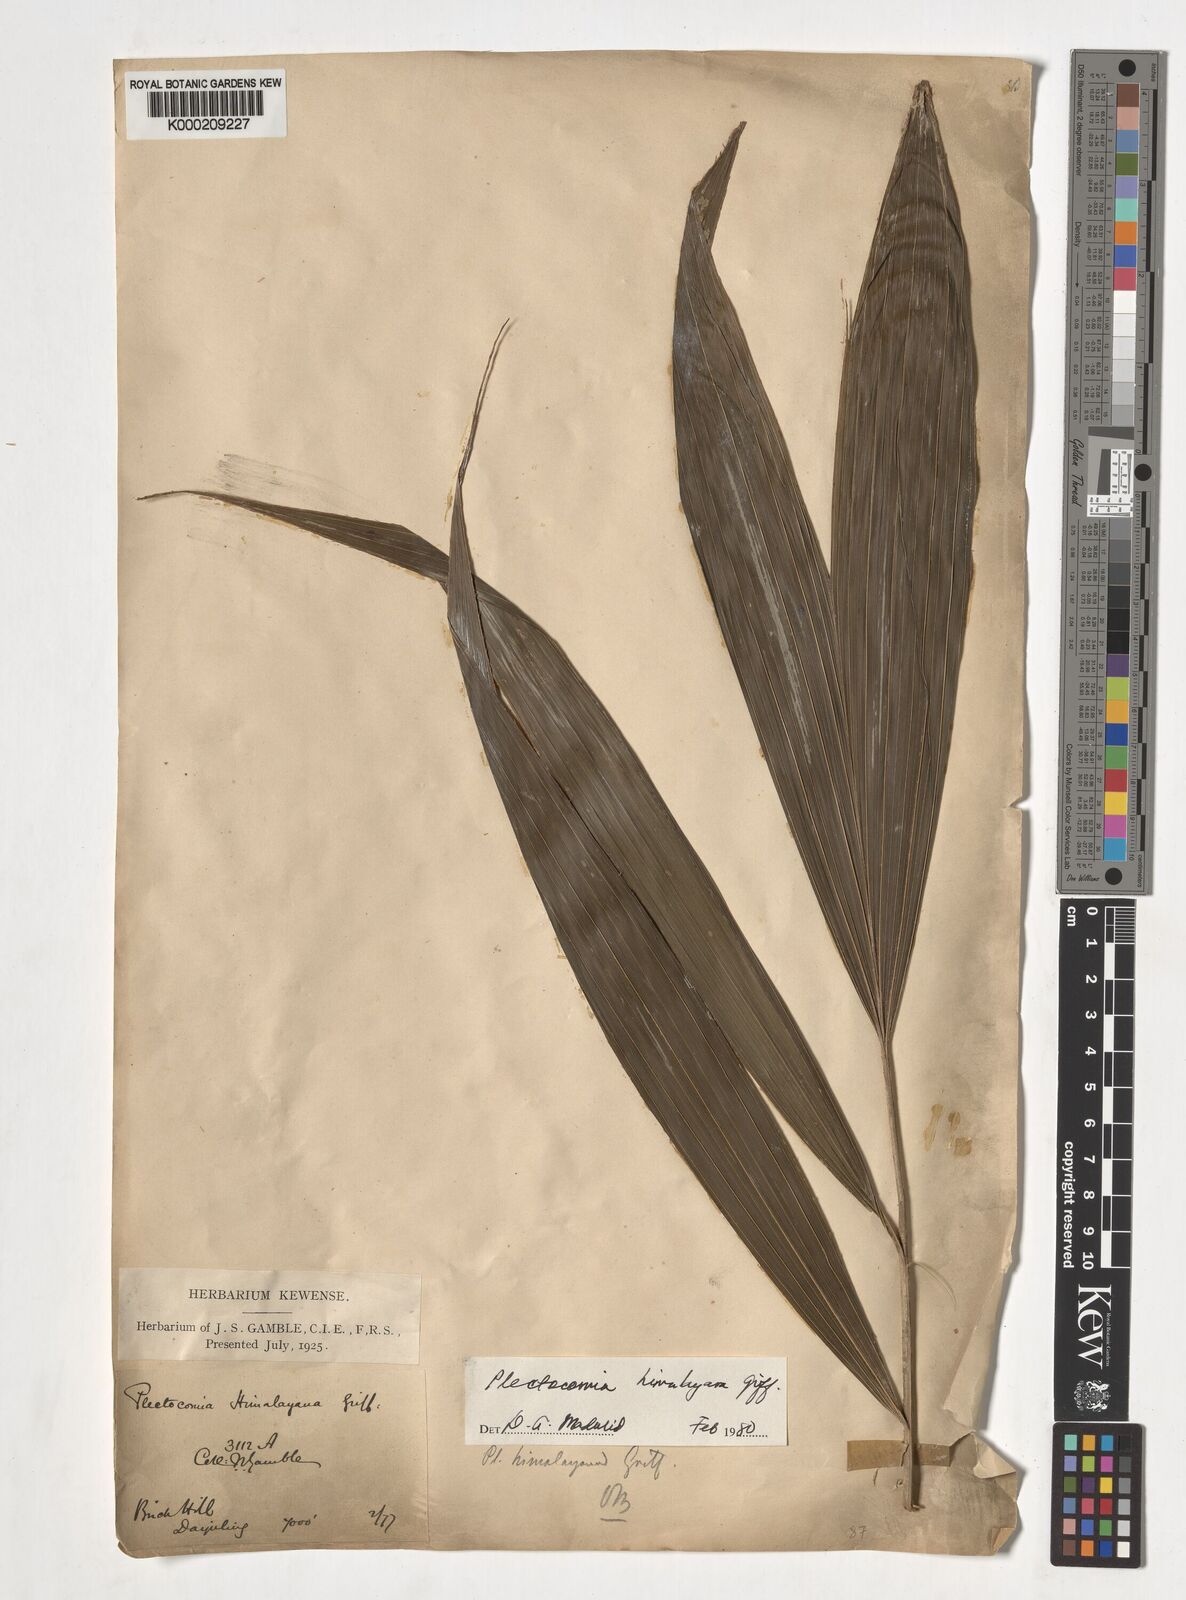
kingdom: Plantae
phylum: Tracheophyta
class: Liliopsida
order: Arecales
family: Arecaceae
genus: Plectocomia
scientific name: Plectocomia himalayana
